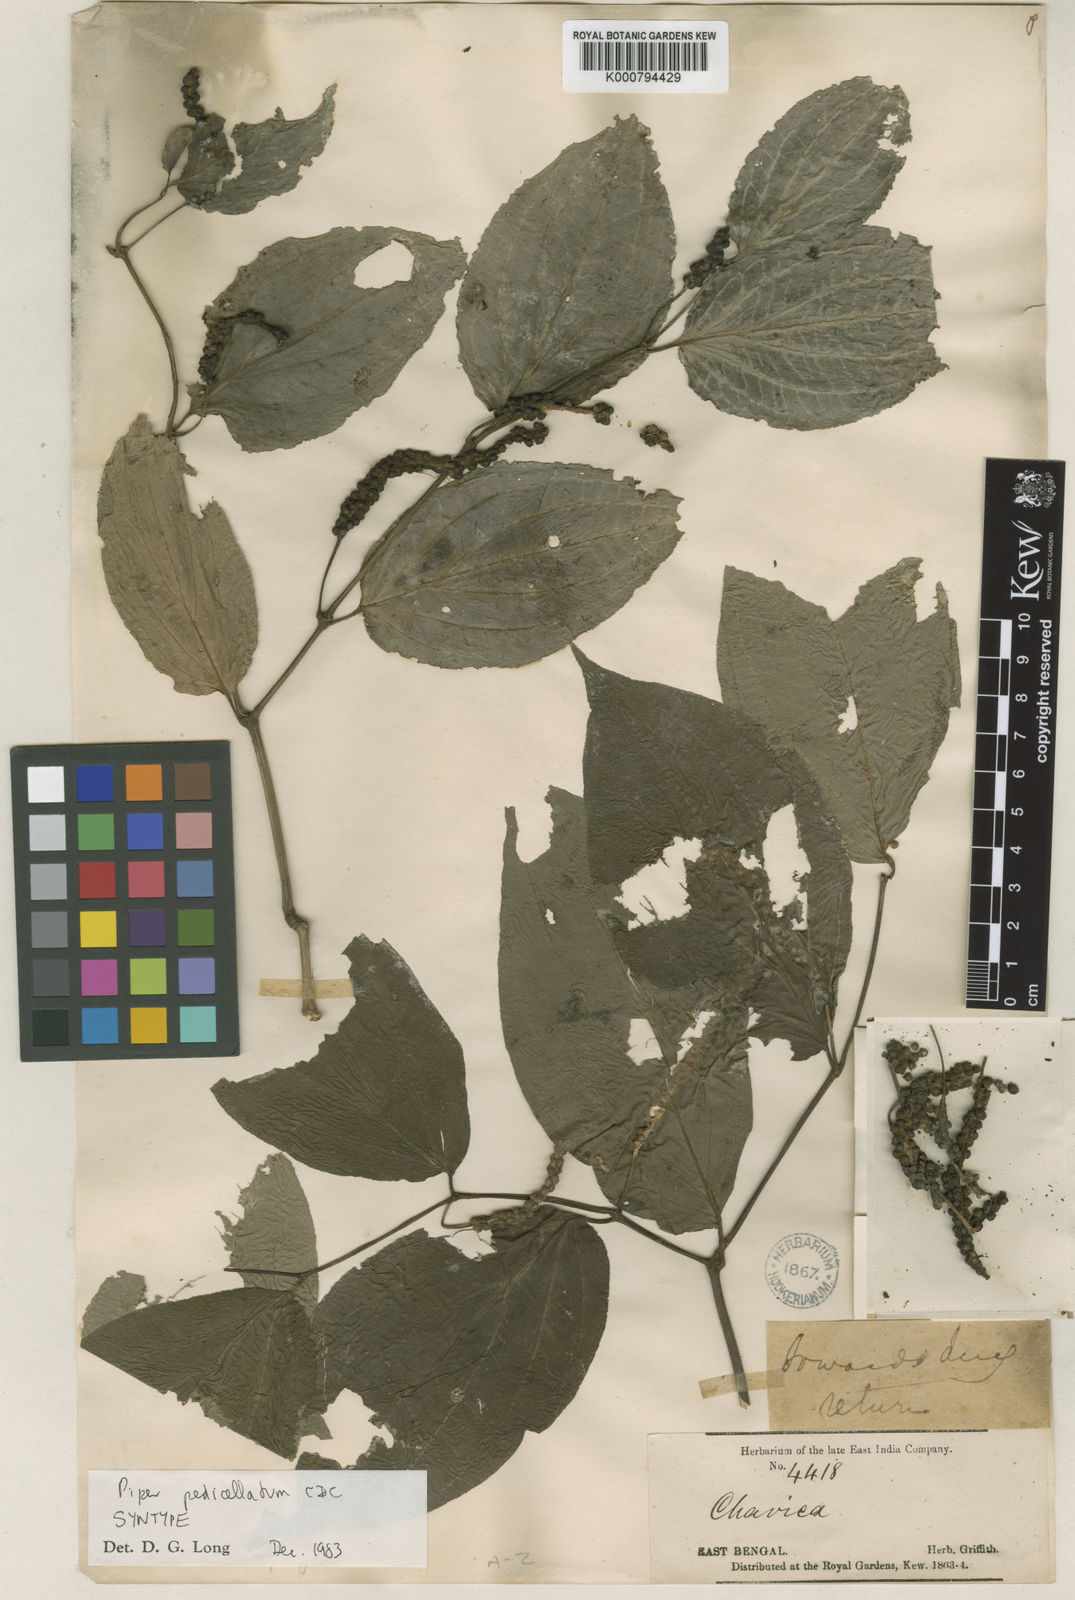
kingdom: Plantae
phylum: Tracheophyta
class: Magnoliopsida
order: Piperales
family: Piperaceae
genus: Piper
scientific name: Piper pedicellatum
